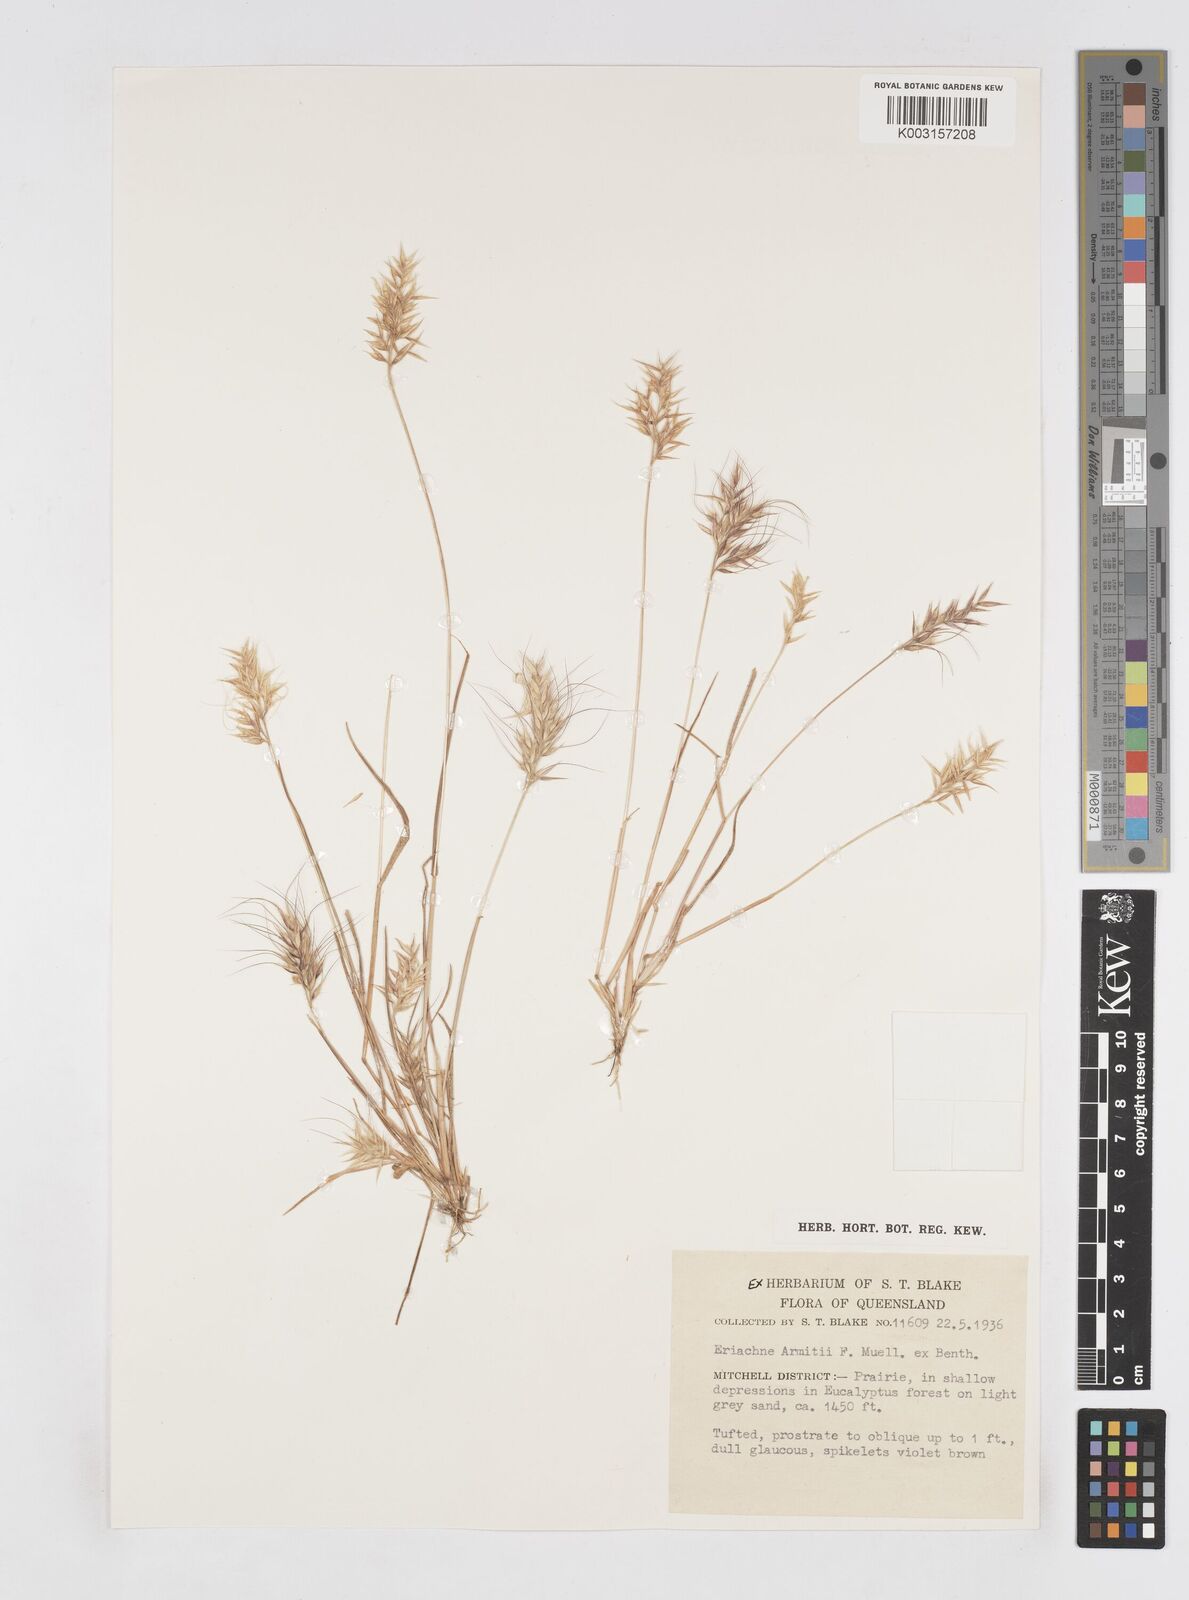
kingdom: Plantae
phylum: Tracheophyta
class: Liliopsida
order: Poales
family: Poaceae
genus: Eriachne
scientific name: Eriachne armitii
